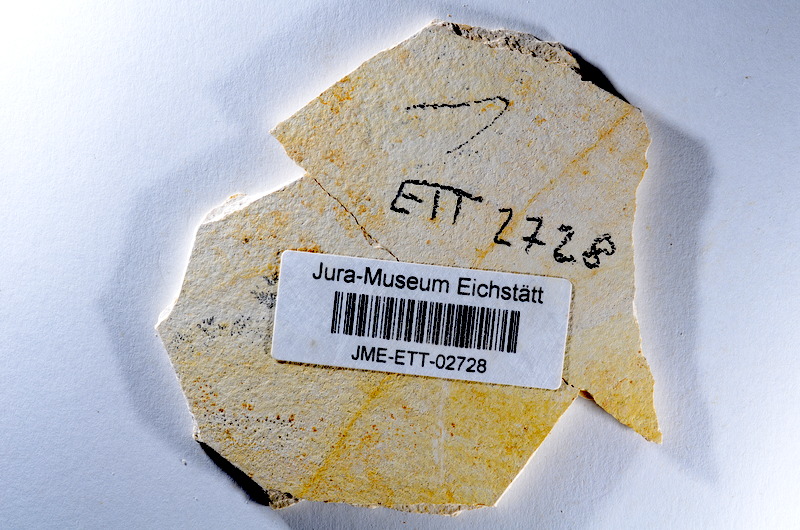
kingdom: Animalia
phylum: Chordata
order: Salmoniformes
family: Orthogonikleithridae
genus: Orthogonikleithrus
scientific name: Orthogonikleithrus hoelli
